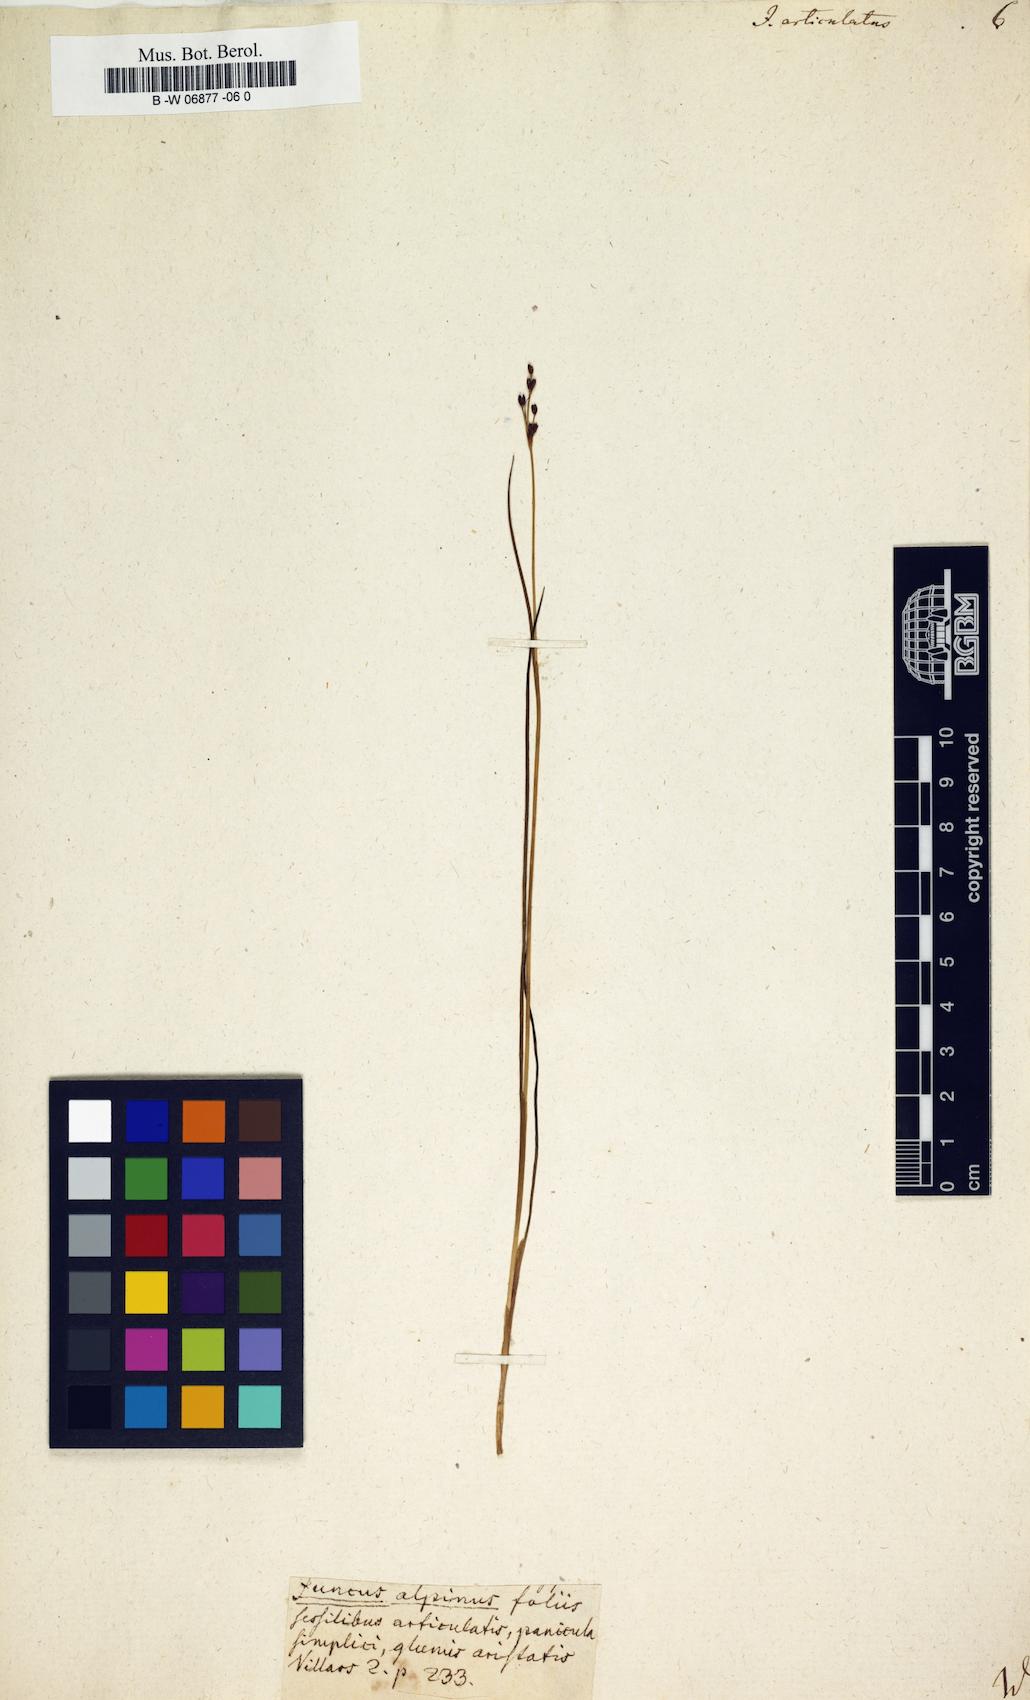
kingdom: Plantae
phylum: Tracheophyta
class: Liliopsida
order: Poales
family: Juncaceae
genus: Juncus
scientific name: Juncus articulatus
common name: Jointed rush
